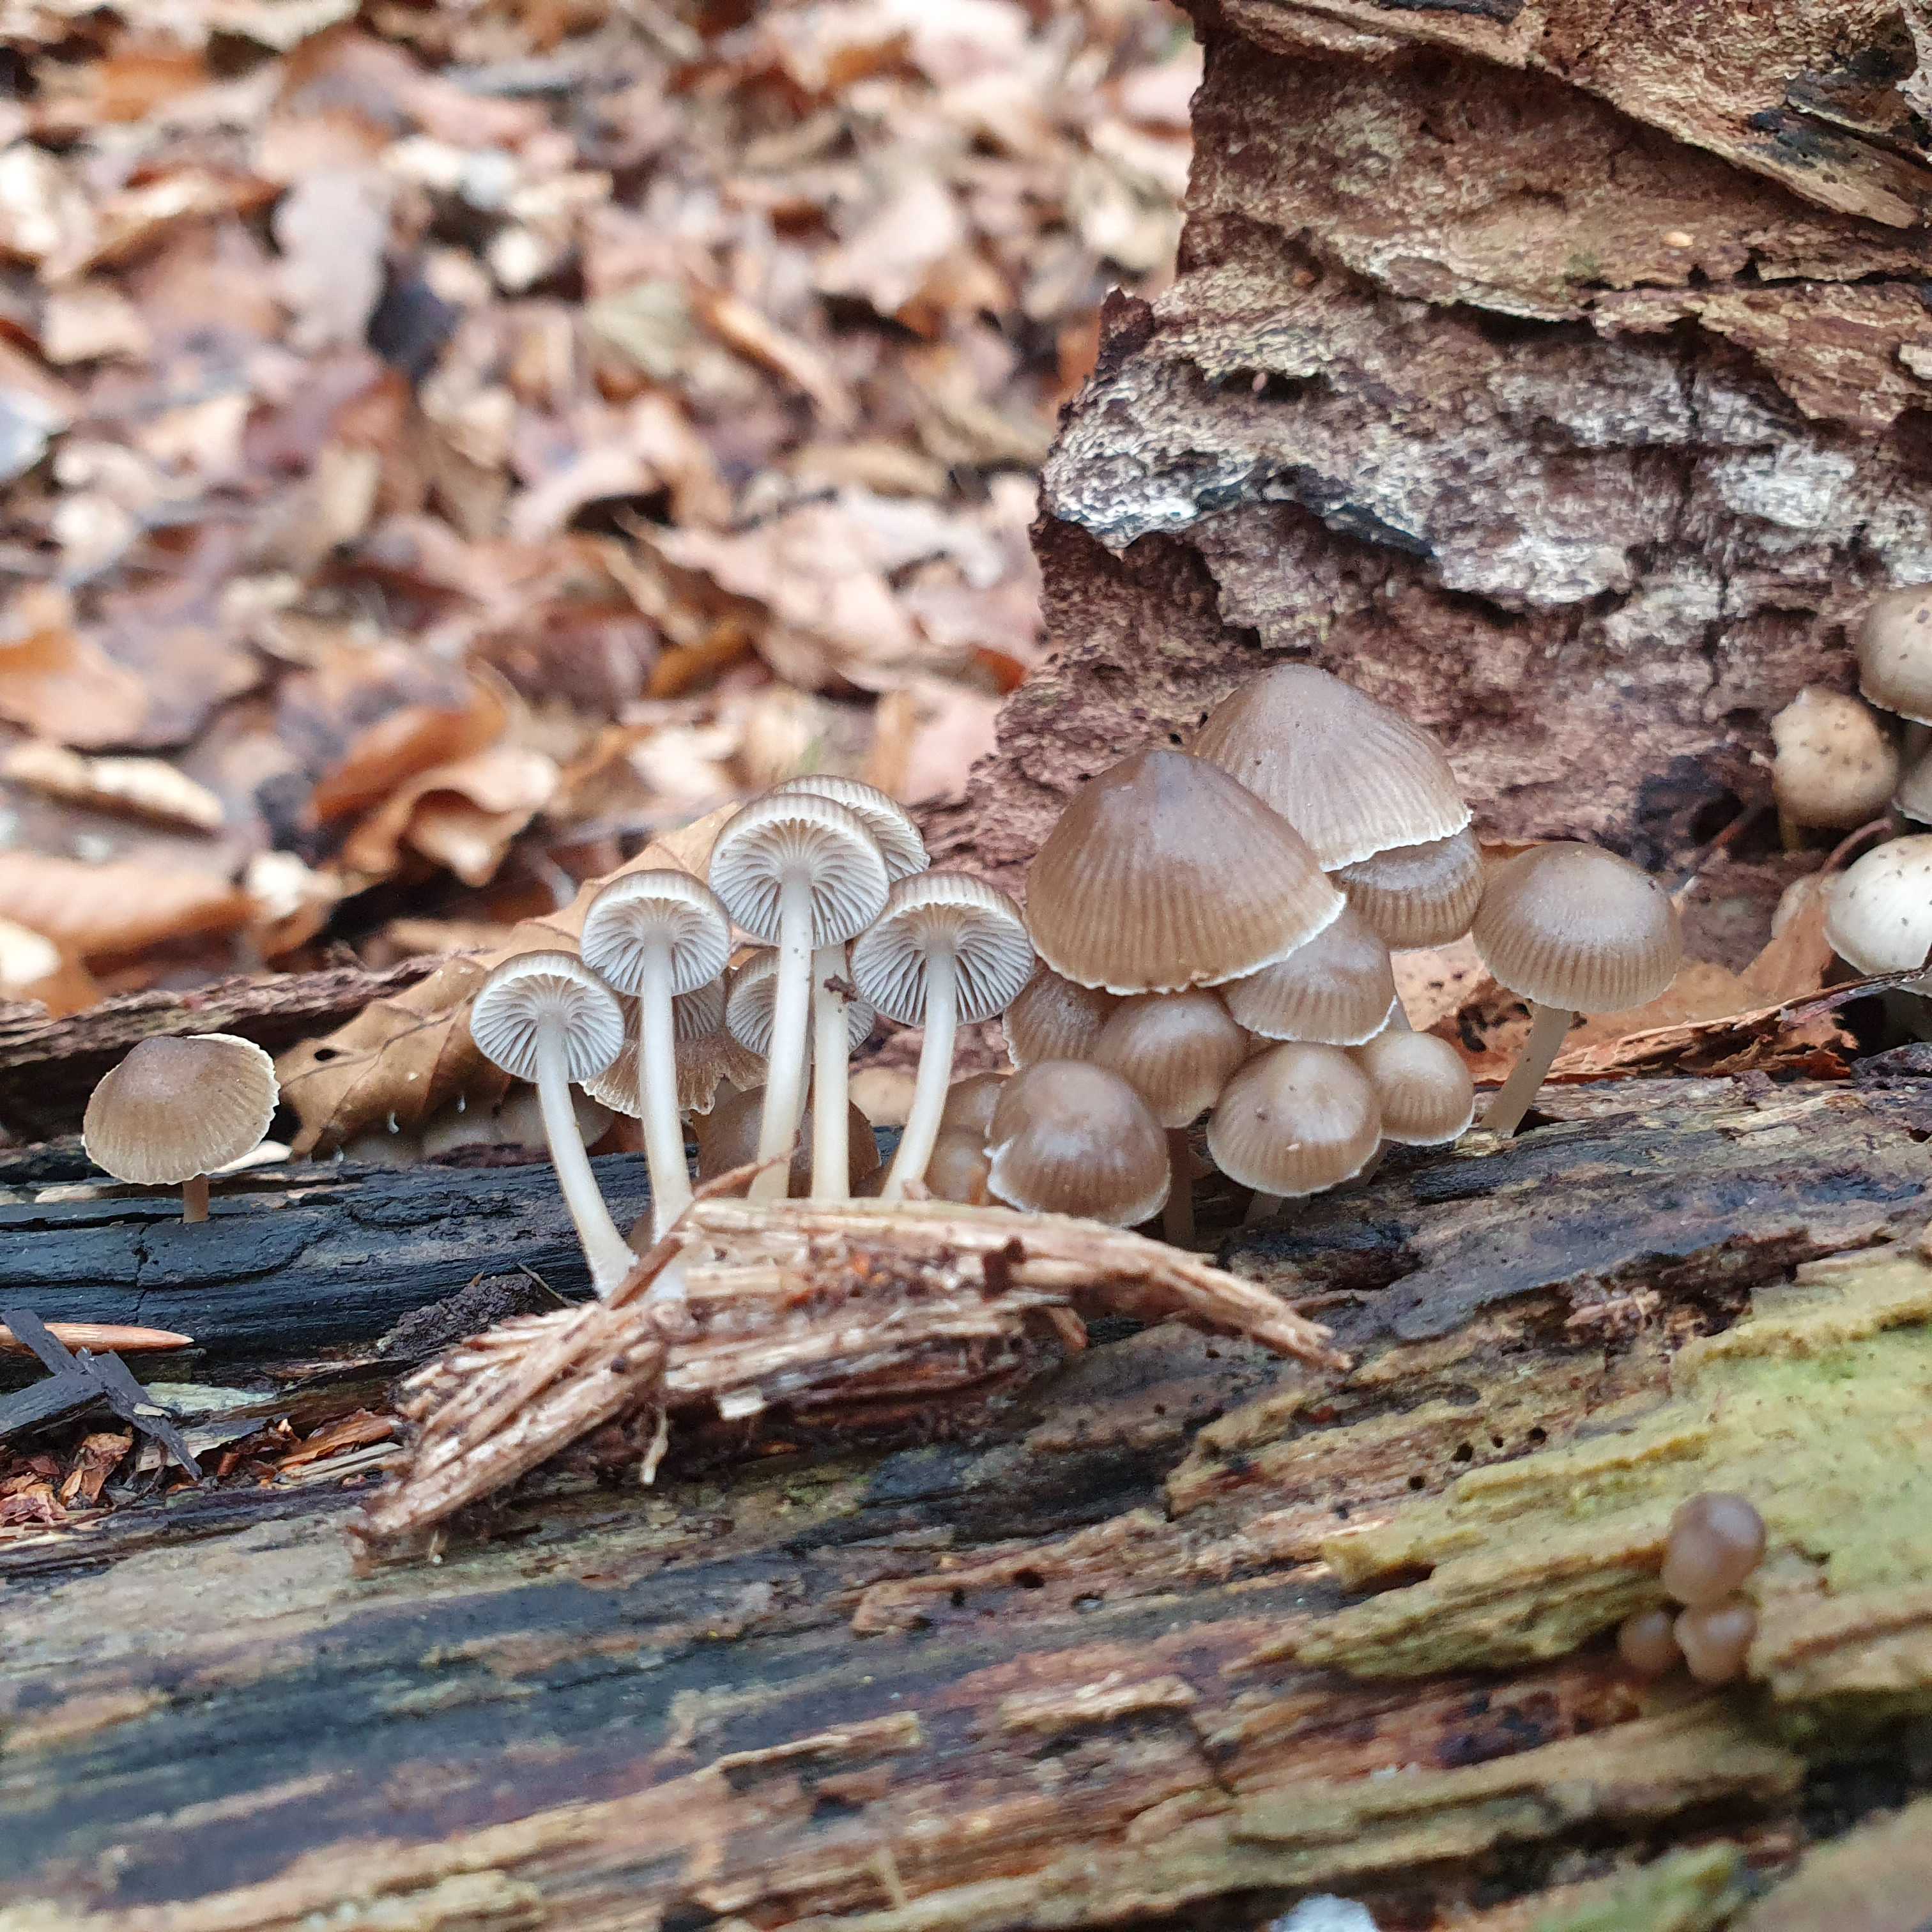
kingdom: Fungi
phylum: Basidiomycota
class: Agaricomycetes
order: Agaricales
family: Mycenaceae
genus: Mycena
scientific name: Mycena tintinnabulum
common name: vinter-huesvamp
